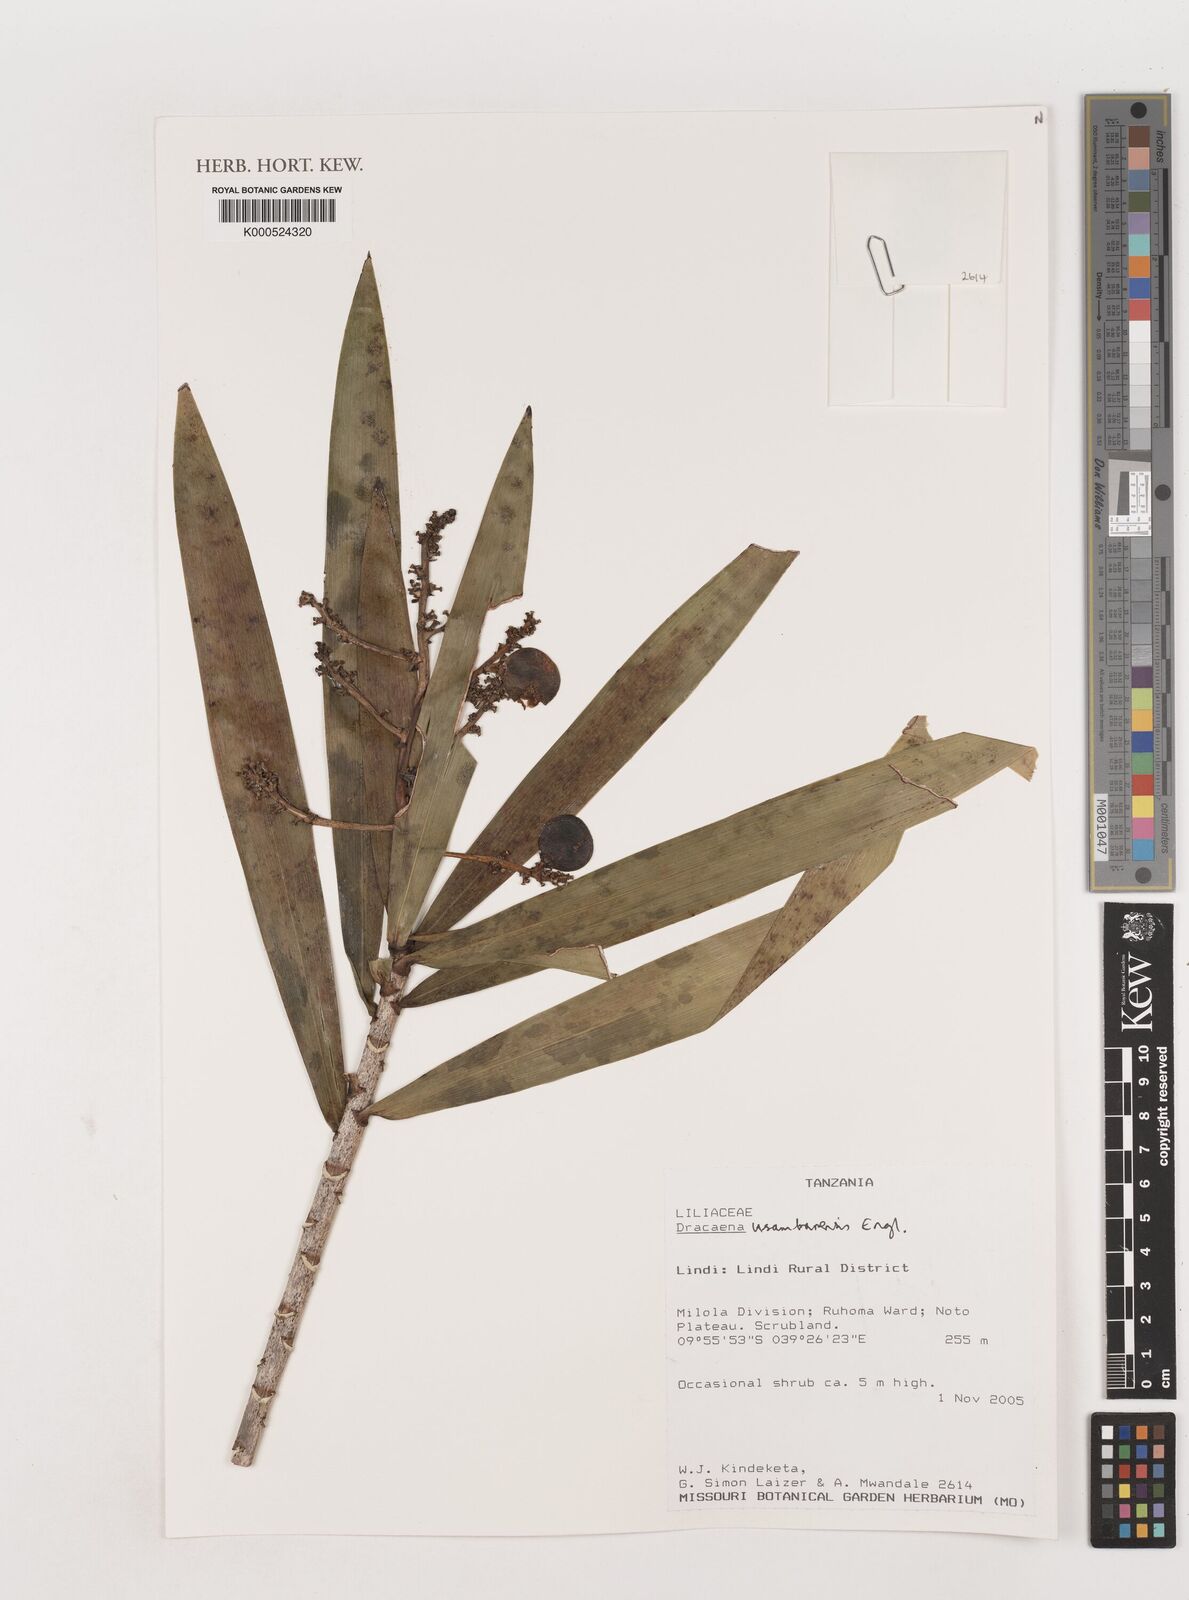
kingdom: Plantae
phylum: Tracheophyta
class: Liliopsida
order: Asparagales
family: Asparagaceae
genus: Dracaena
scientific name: Dracaena
